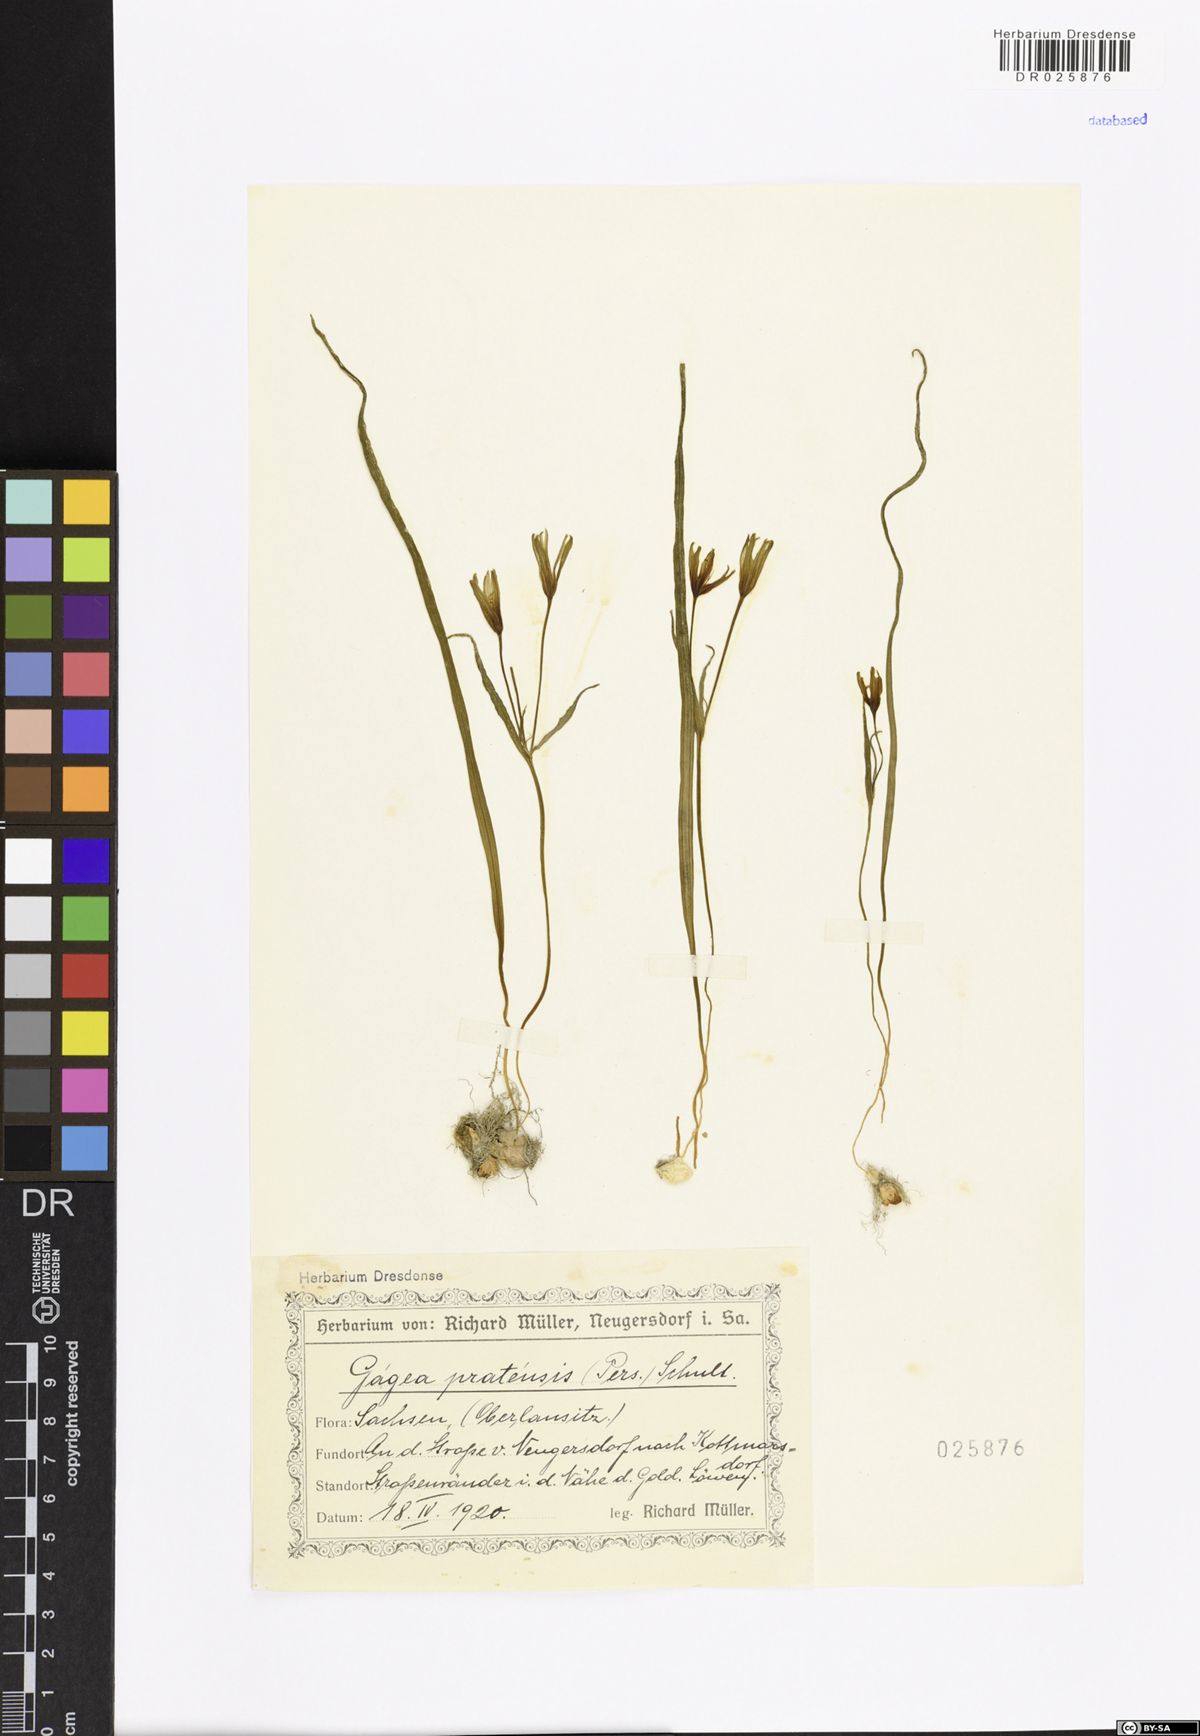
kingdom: Plantae
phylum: Tracheophyta
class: Liliopsida
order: Liliales
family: Liliaceae
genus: Gagea
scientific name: Gagea pratensis
